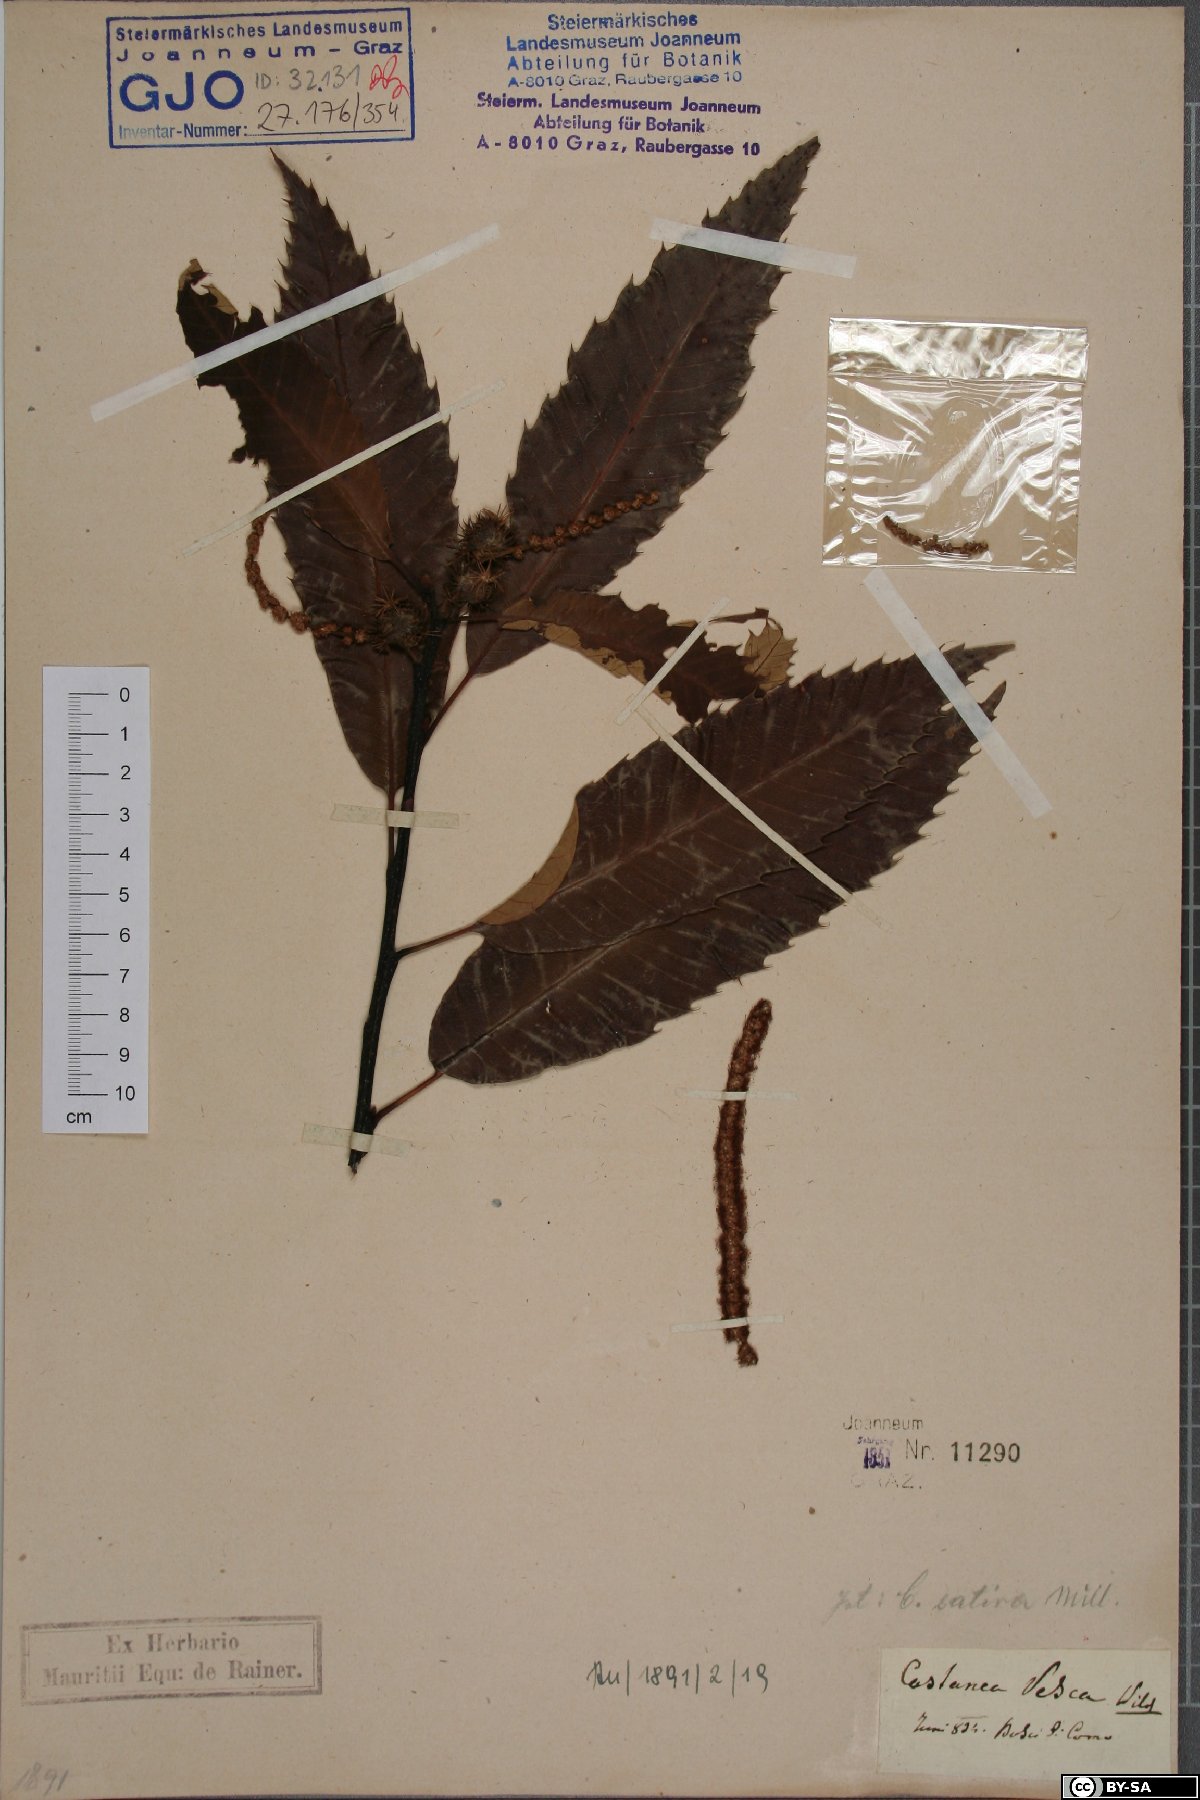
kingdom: Plantae
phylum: Tracheophyta
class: Magnoliopsida
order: Fagales
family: Fagaceae
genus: Castanea
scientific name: Castanea sativa
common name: Sweet chestnut
